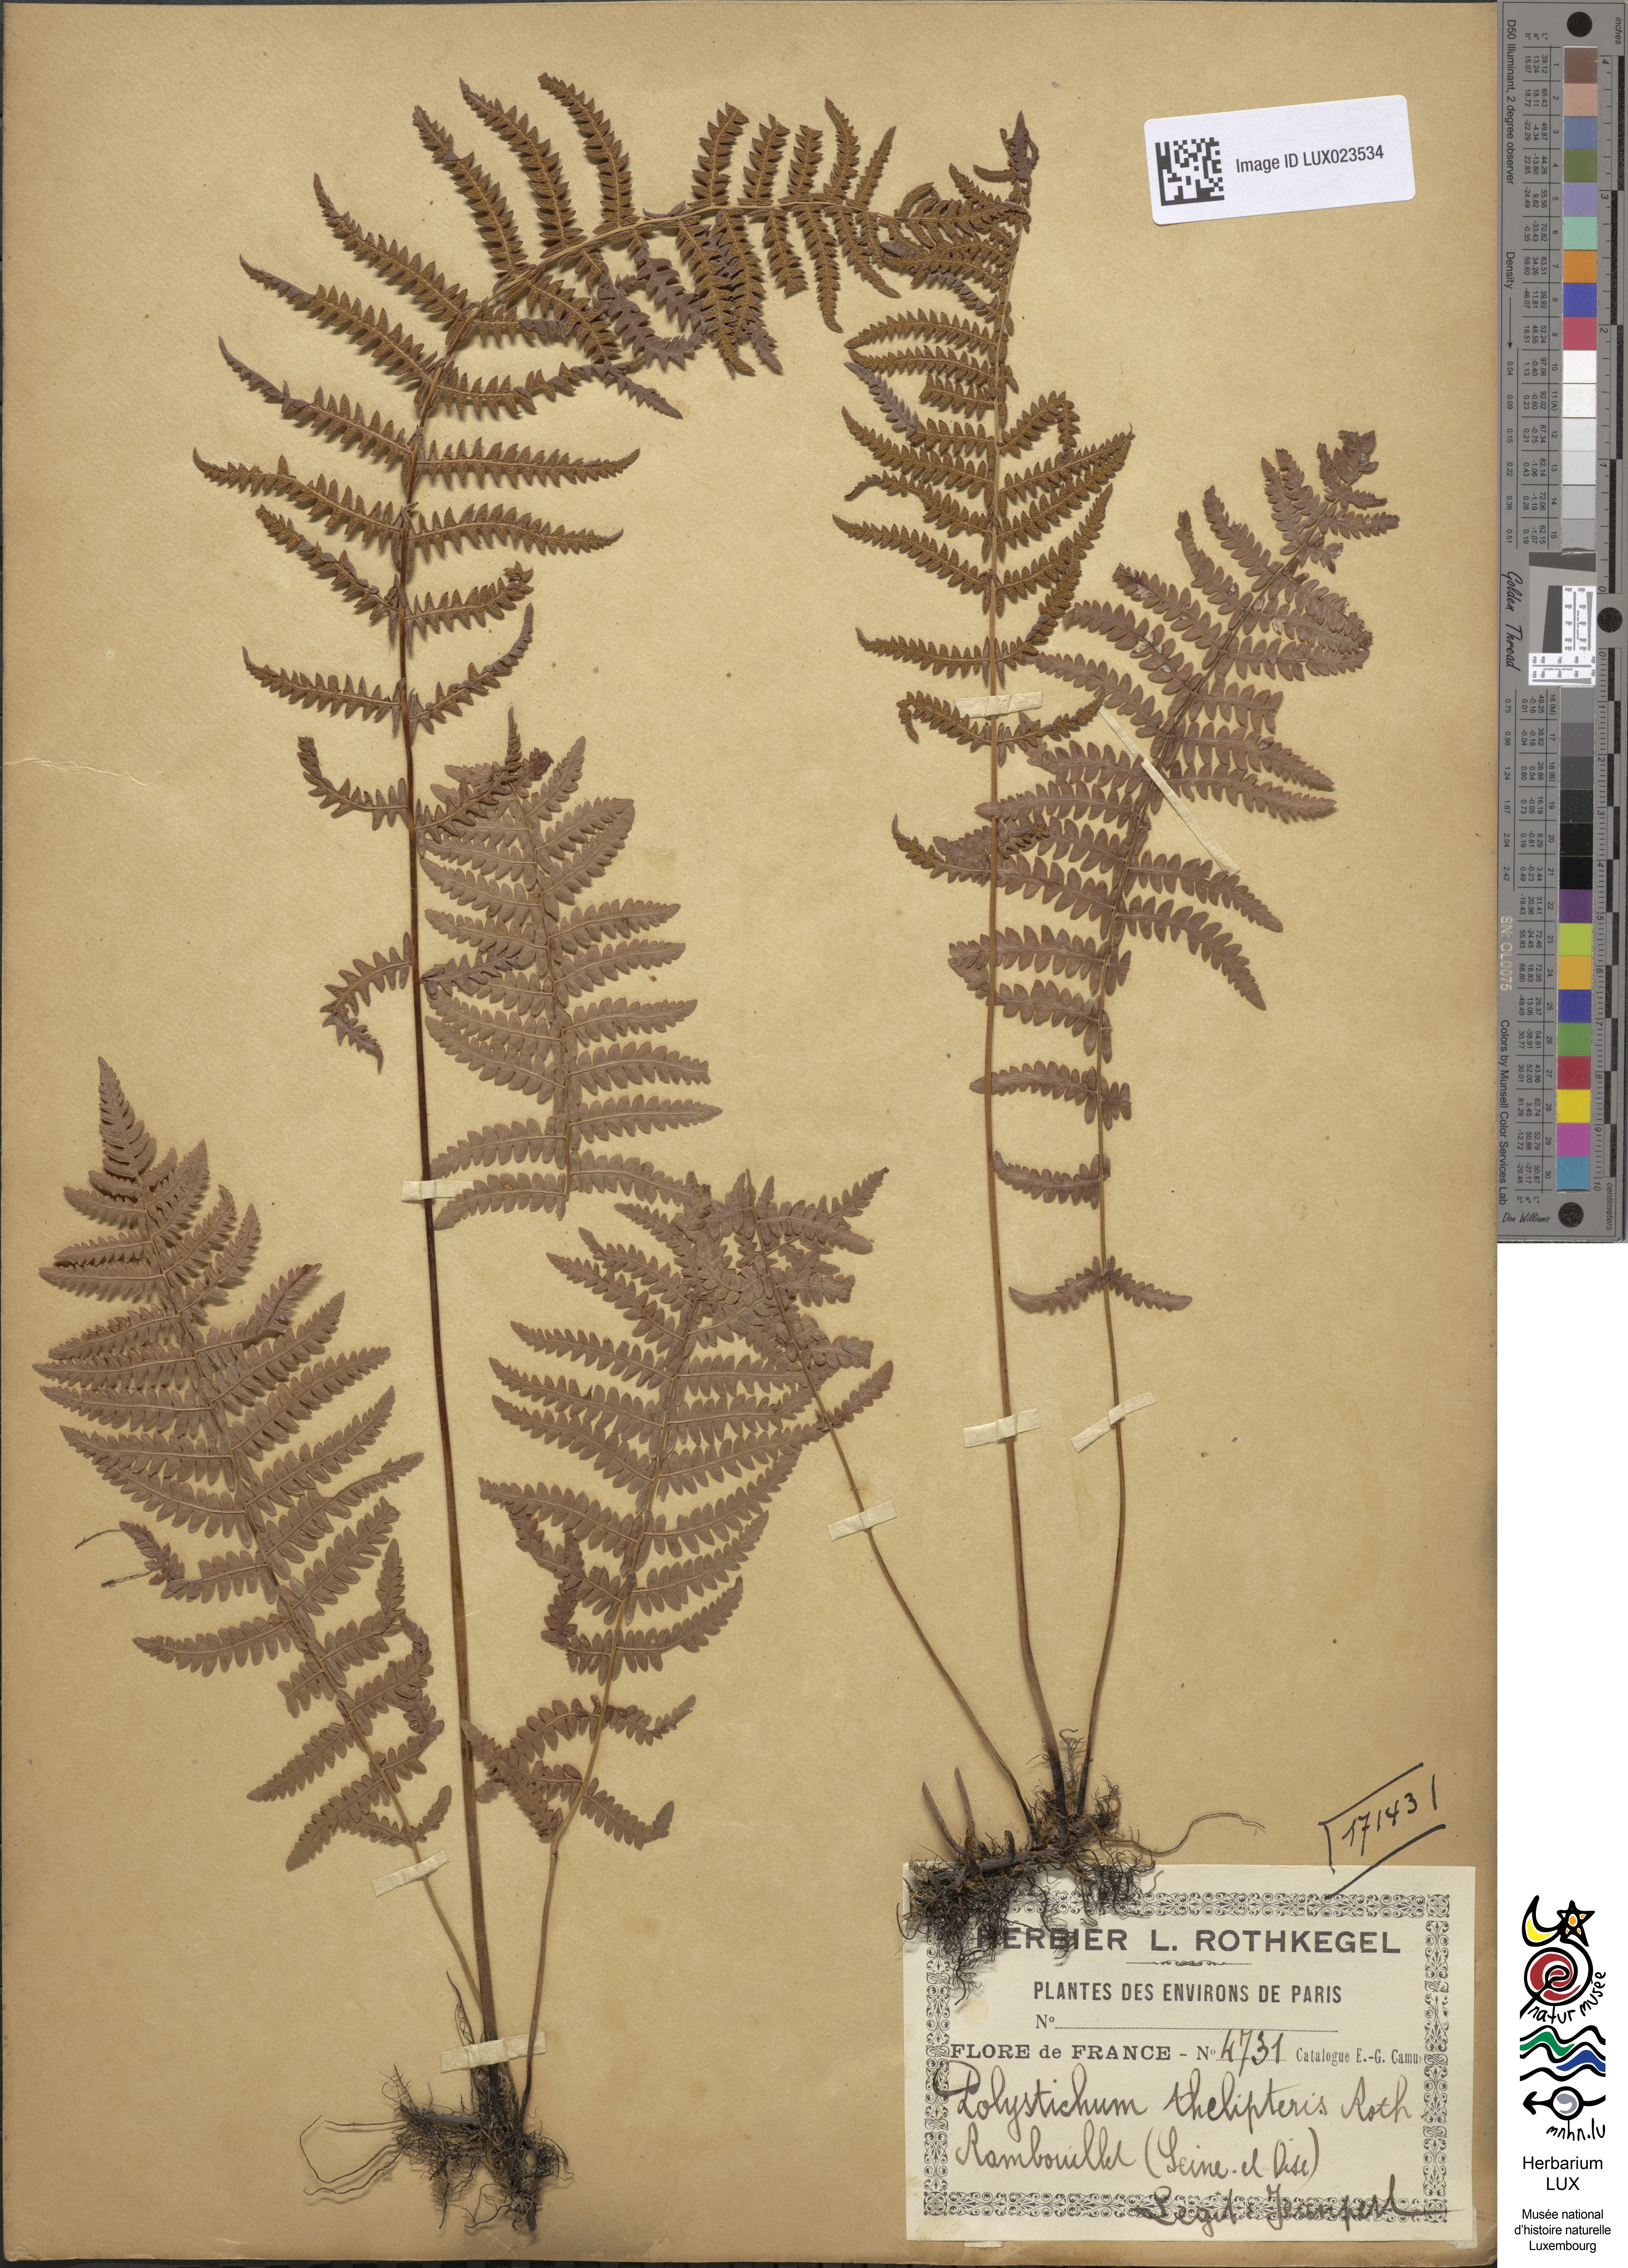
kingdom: Plantae
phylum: Tracheophyta
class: Polypodiopsida
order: Polypodiales
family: Thelypteridaceae
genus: Thelypteris
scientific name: Thelypteris palustris
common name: Marsh fern
